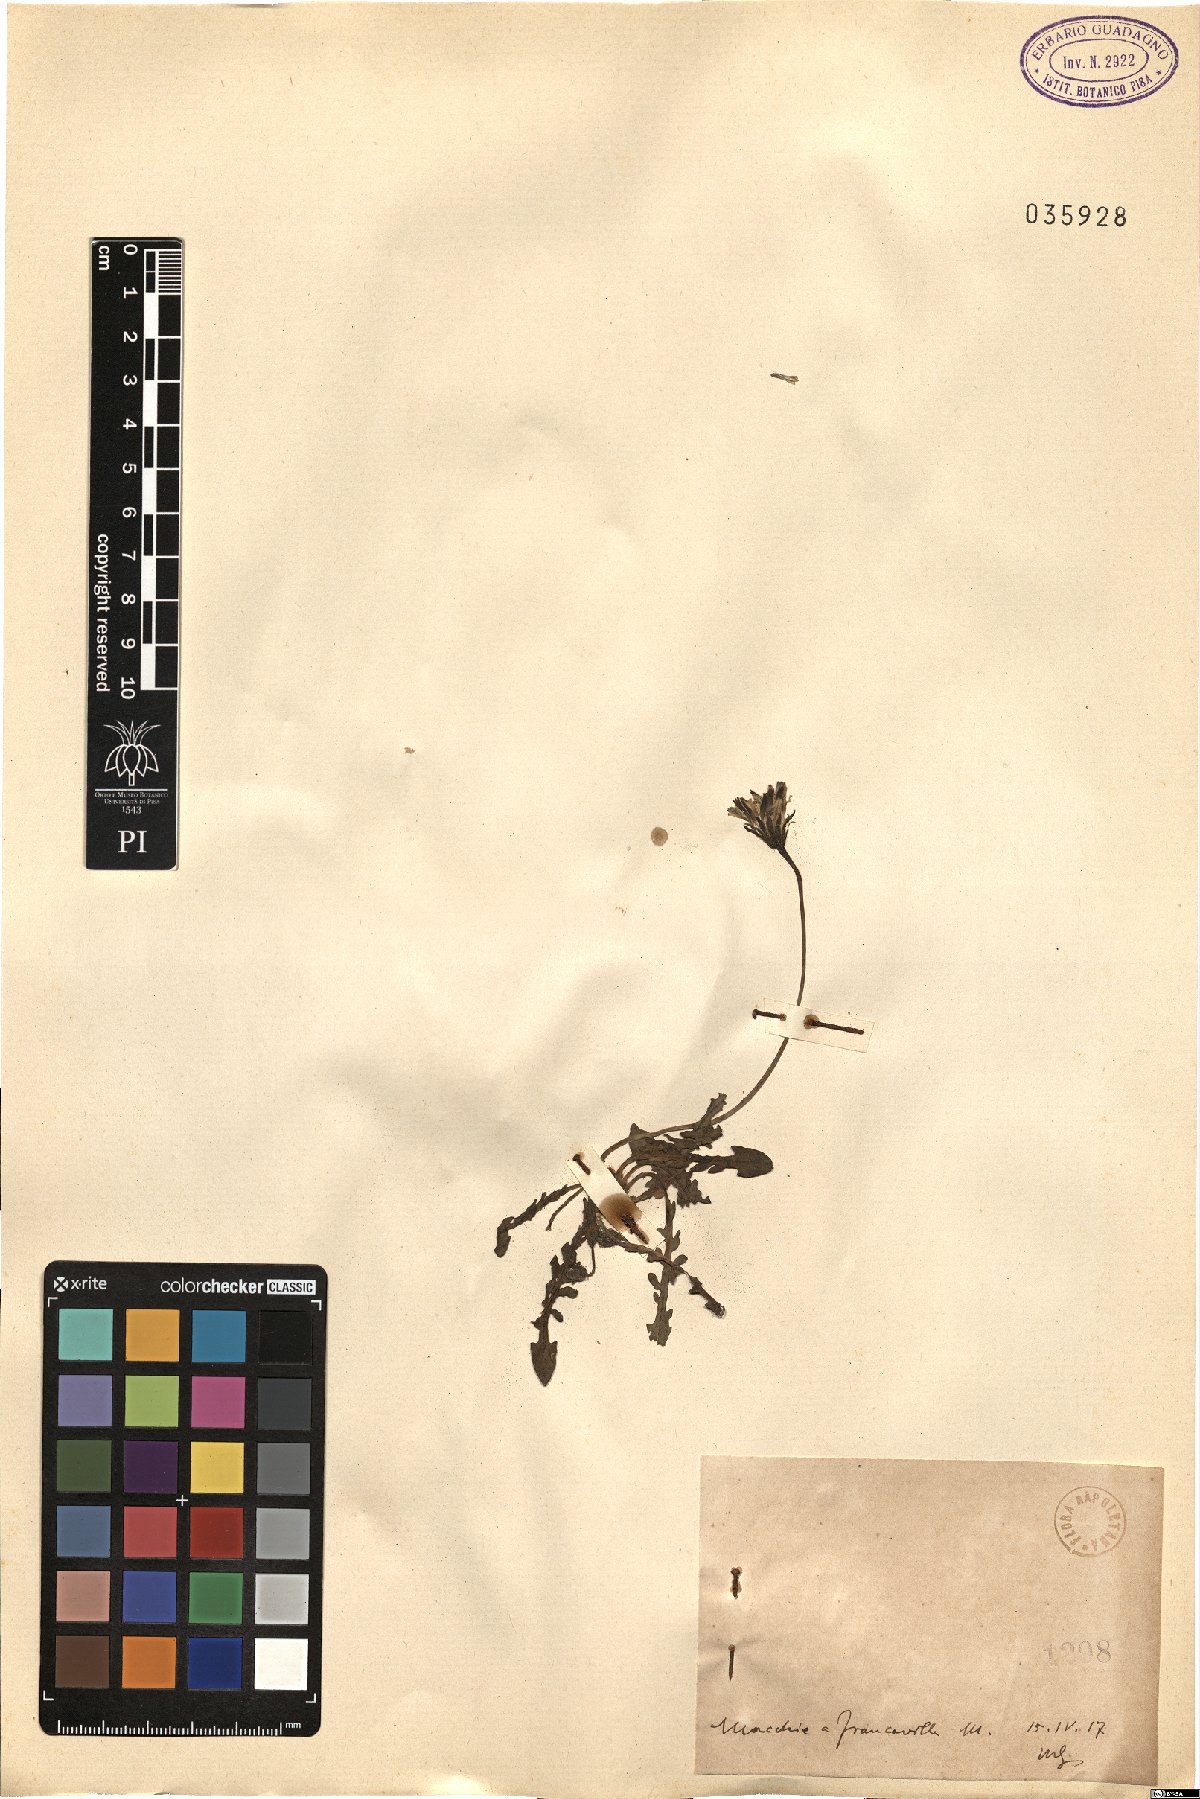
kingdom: Plantae
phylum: Tracheophyta
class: Magnoliopsida
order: Asterales
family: Asteraceae
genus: Reichardia
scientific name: Reichardia
